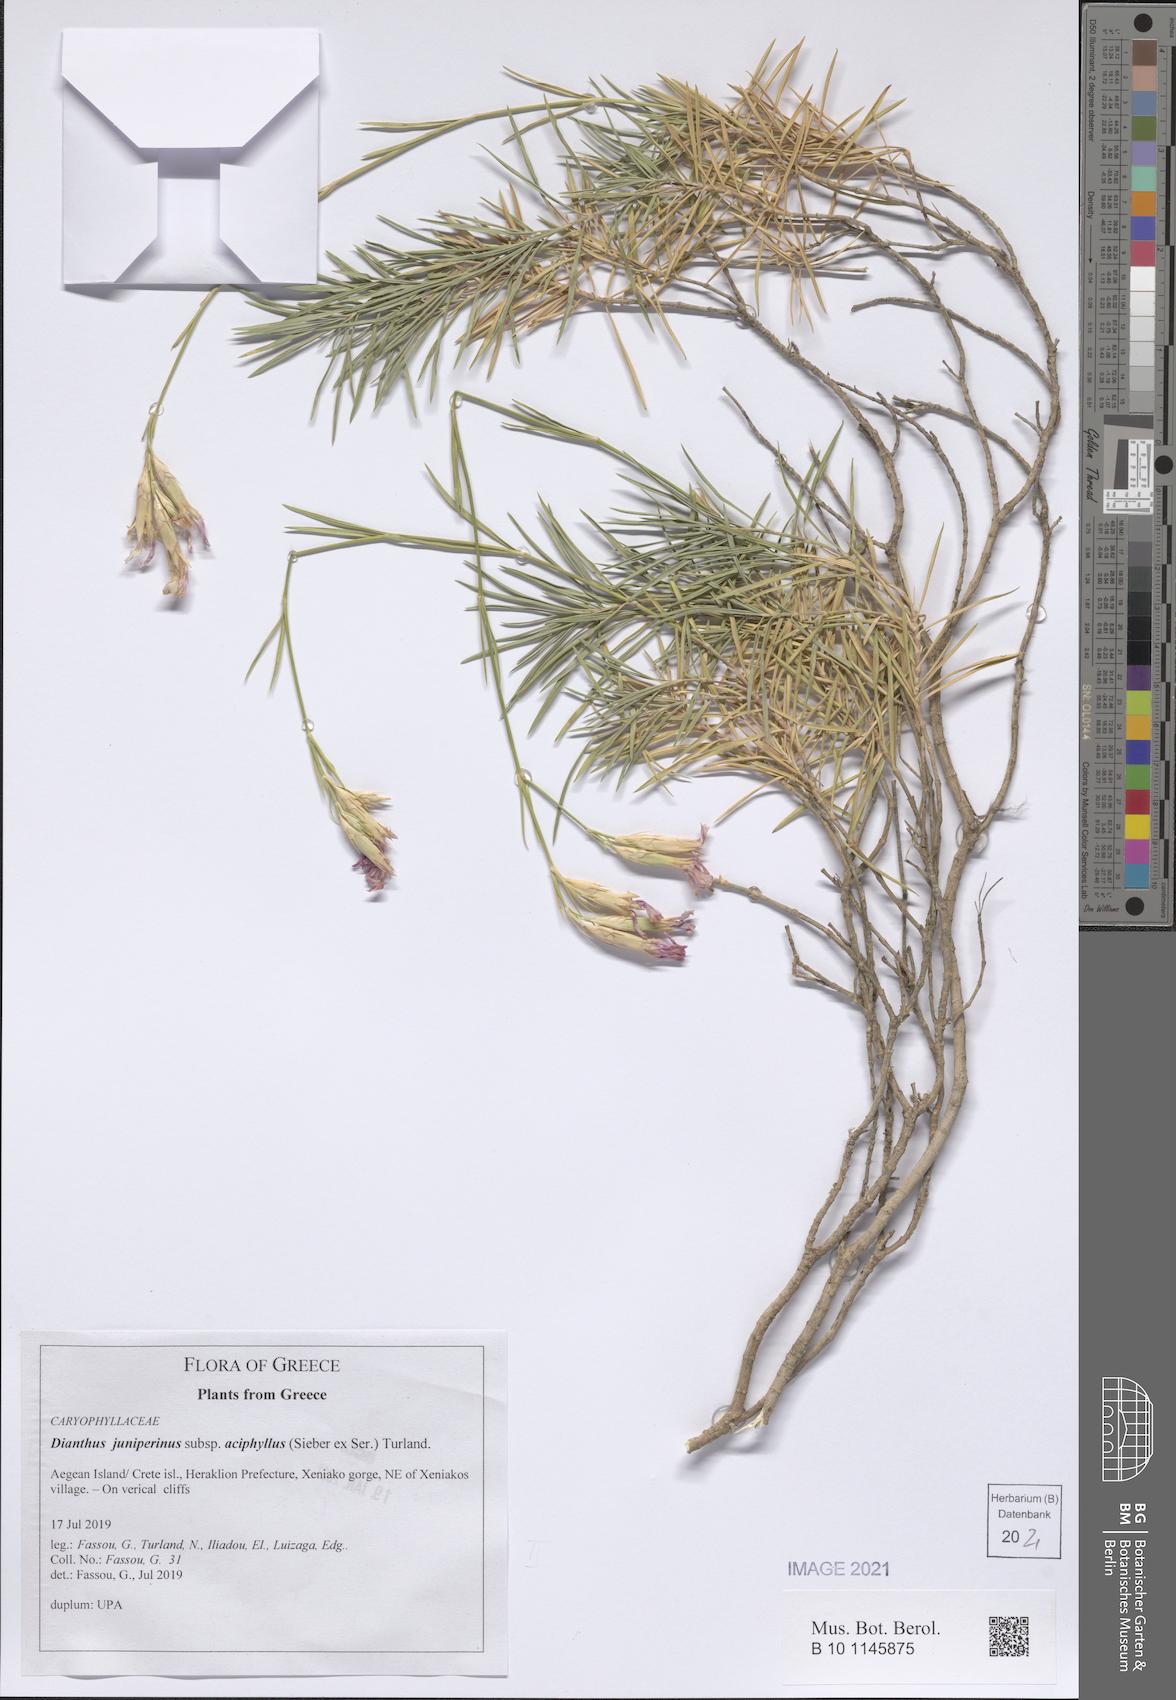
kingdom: Plantae
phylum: Tracheophyta
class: Magnoliopsida
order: Caryophyllales
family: Caryophyllaceae
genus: Dianthus
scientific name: Dianthus juniperinus
